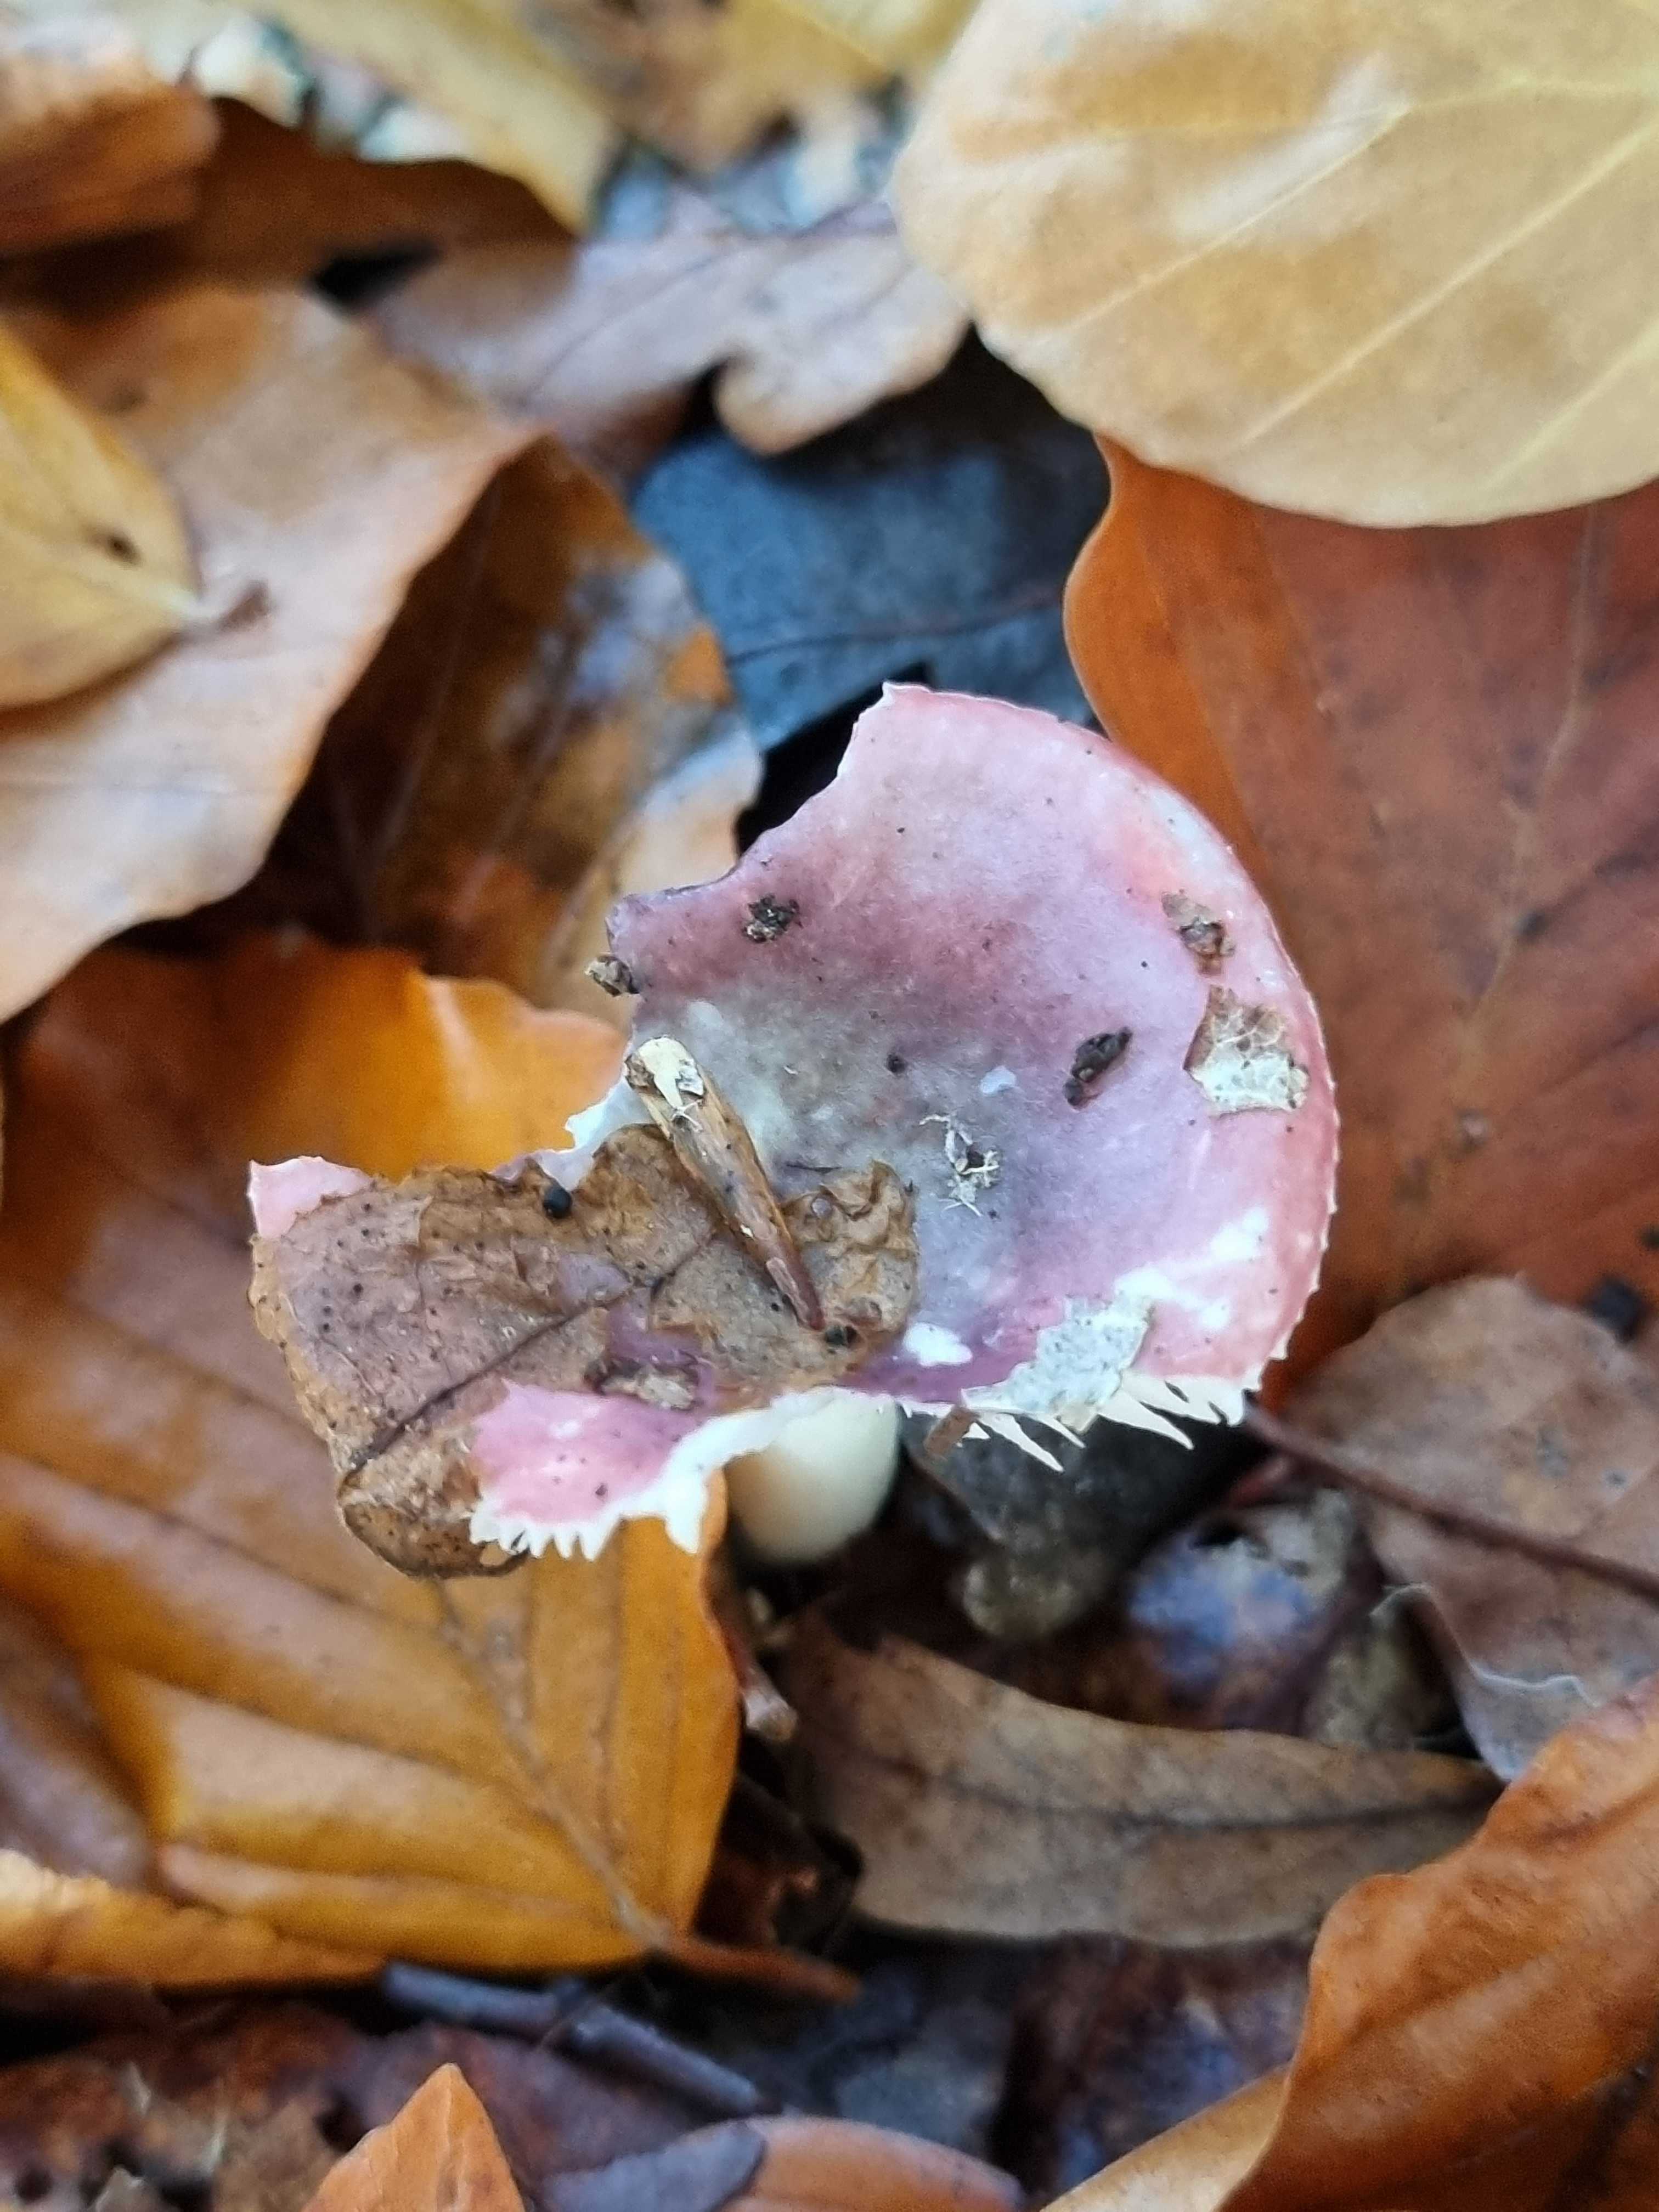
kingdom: Fungi
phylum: Basidiomycota
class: Agaricomycetes
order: Russulales
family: Russulaceae
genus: Russula
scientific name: Russula
